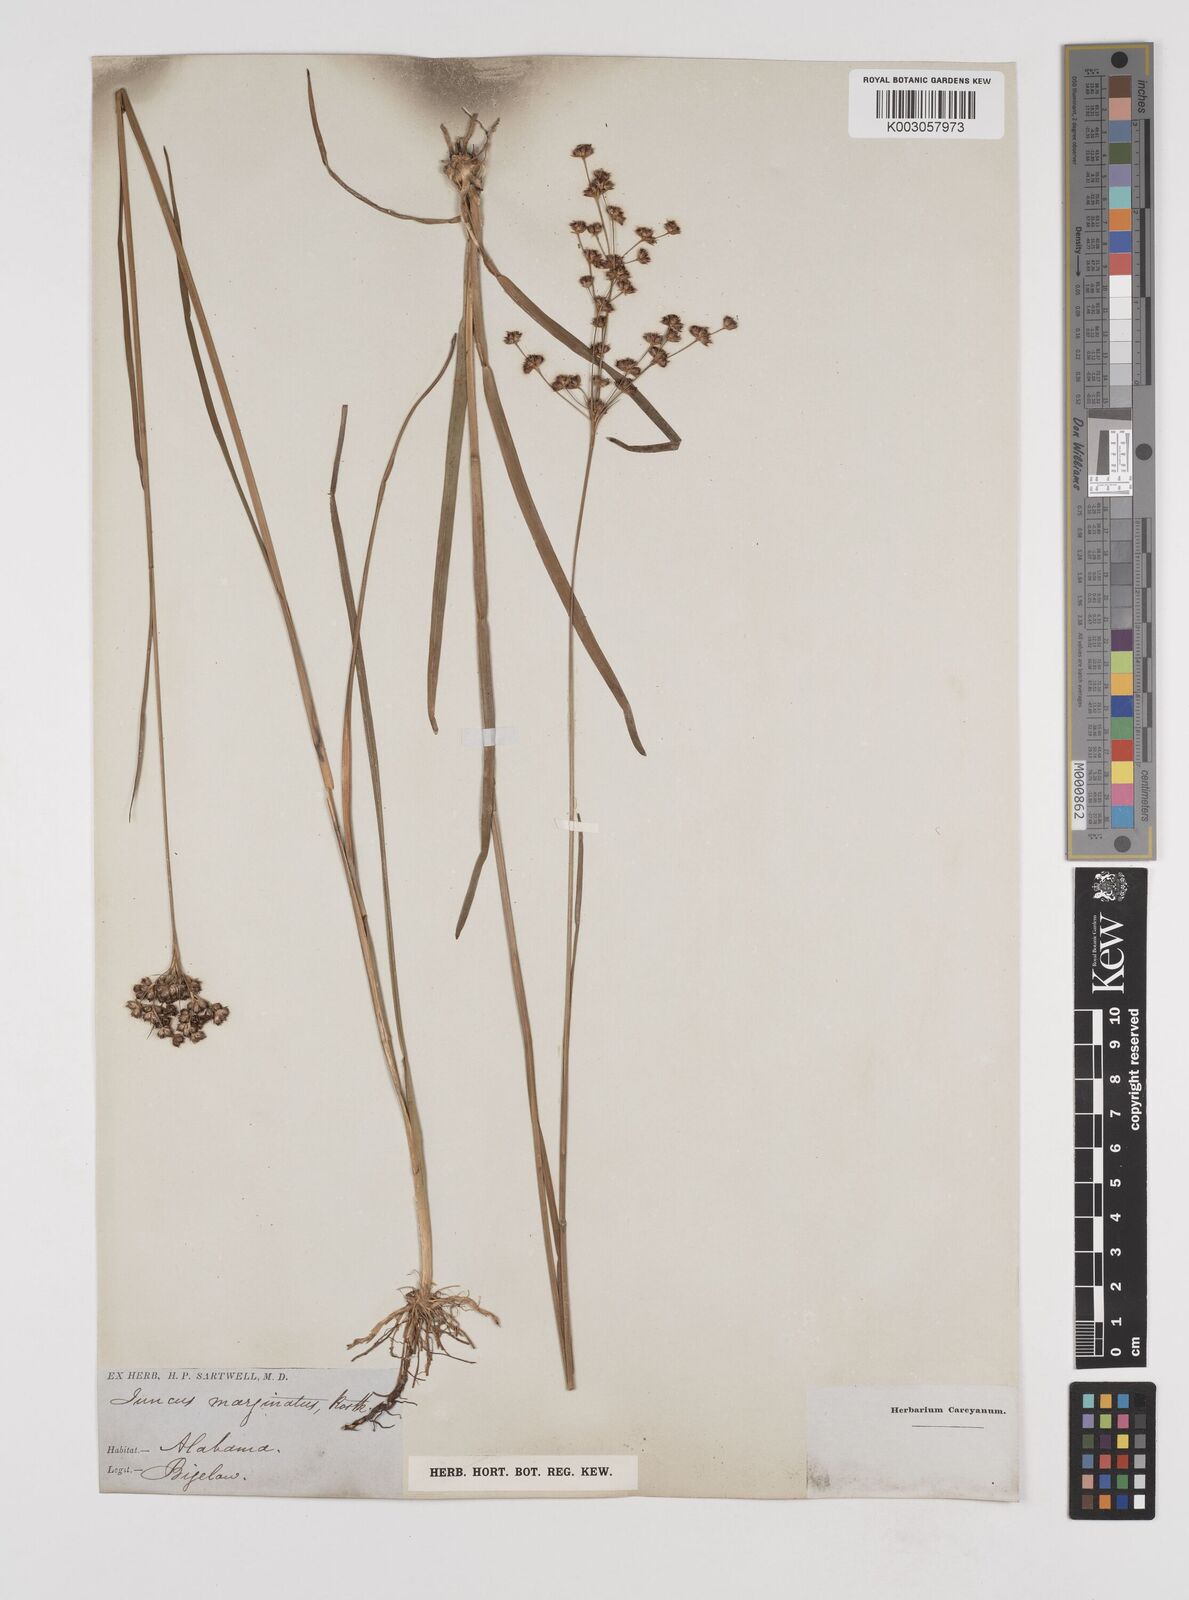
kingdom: Plantae
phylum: Tracheophyta
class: Liliopsida
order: Poales
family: Juncaceae
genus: Juncus
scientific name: Juncus marginatus
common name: Grass-leaf rush
